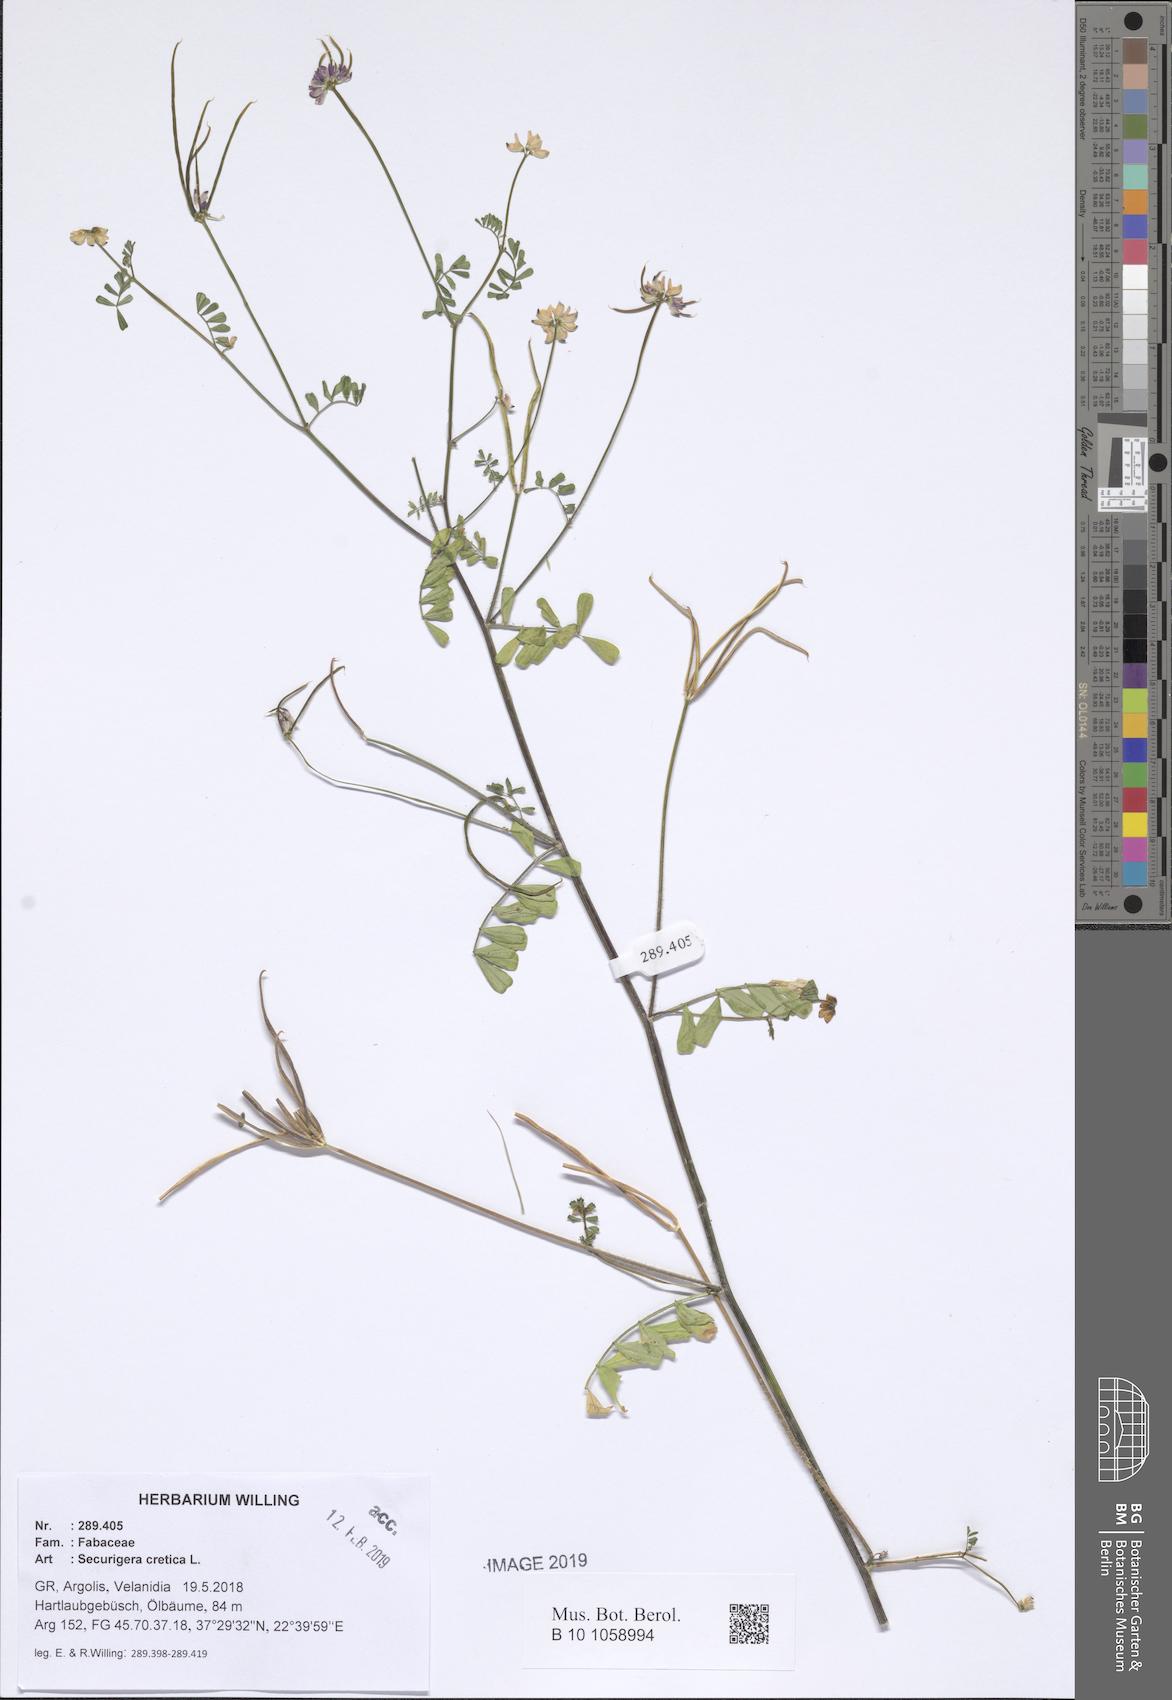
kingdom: Plantae
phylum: Tracheophyta
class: Magnoliopsida
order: Fabales
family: Fabaceae
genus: Coronilla
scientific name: Coronilla cretica
